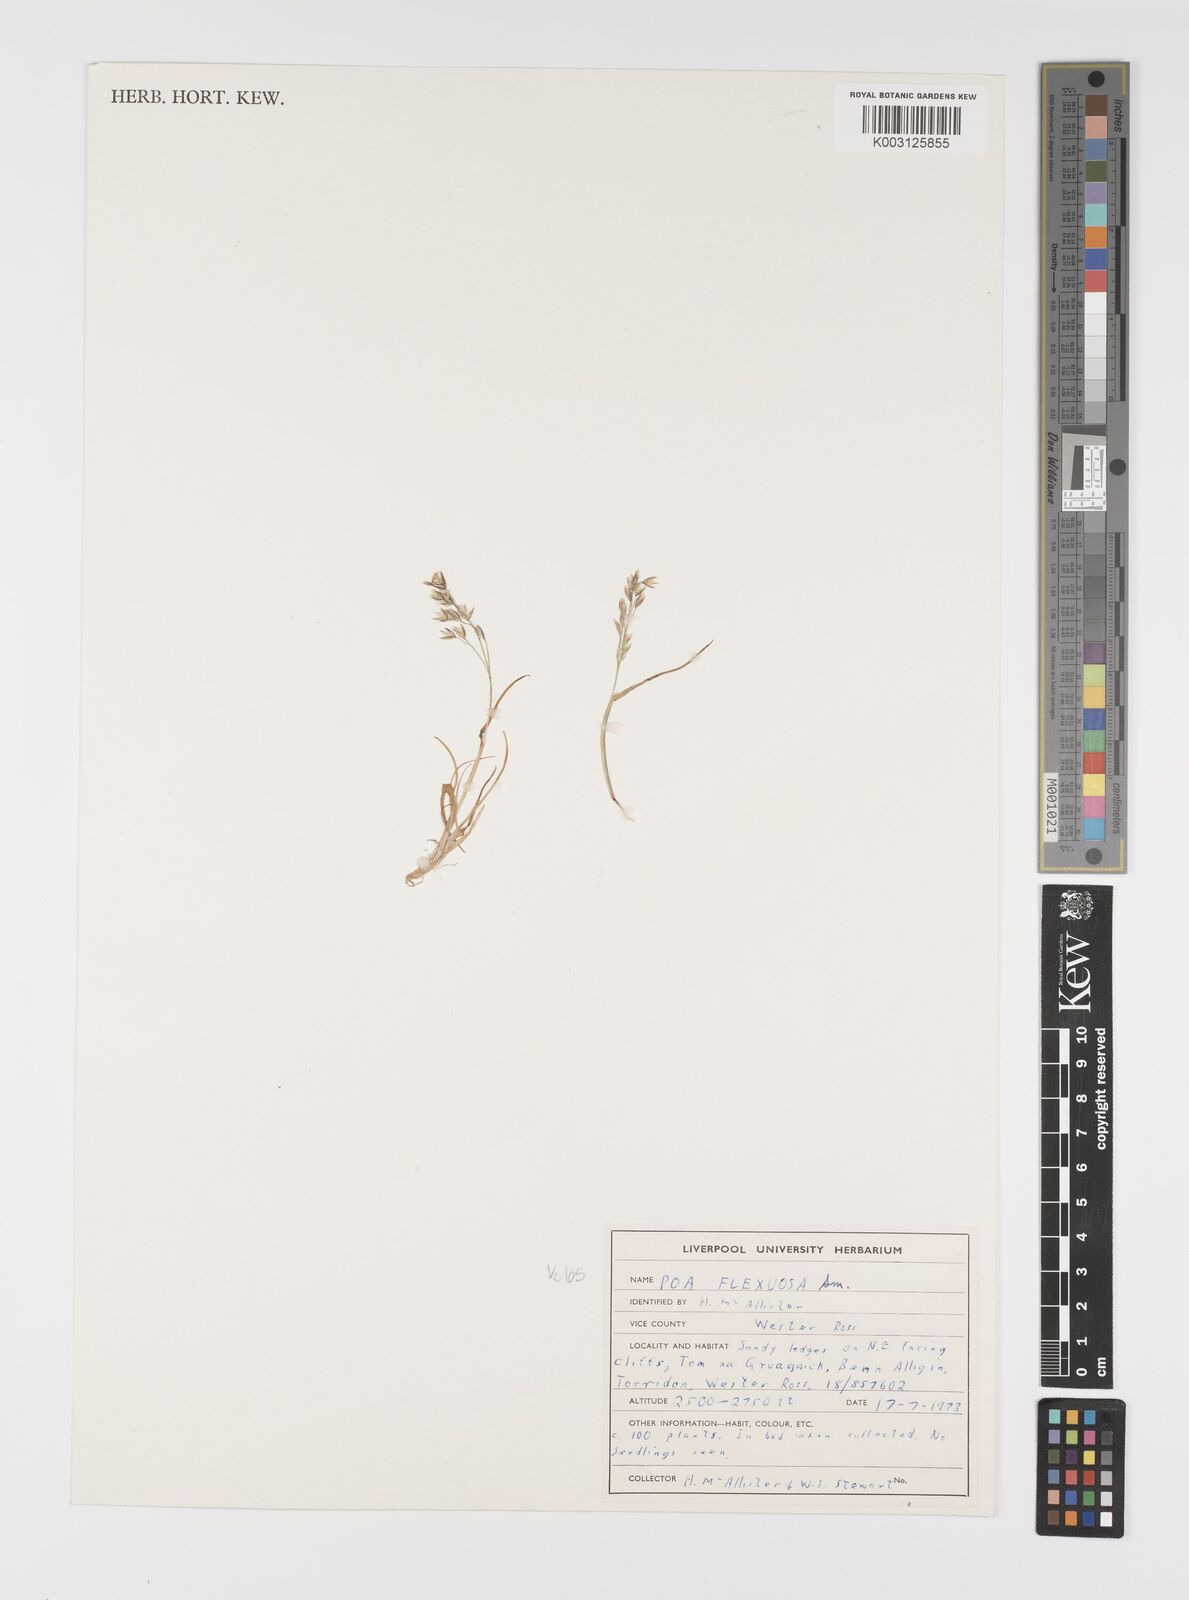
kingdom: Plantae
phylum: Tracheophyta
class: Liliopsida
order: Poales
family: Poaceae
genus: Eragrostis
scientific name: Eragrostis cilianensis
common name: Stinkgrass
